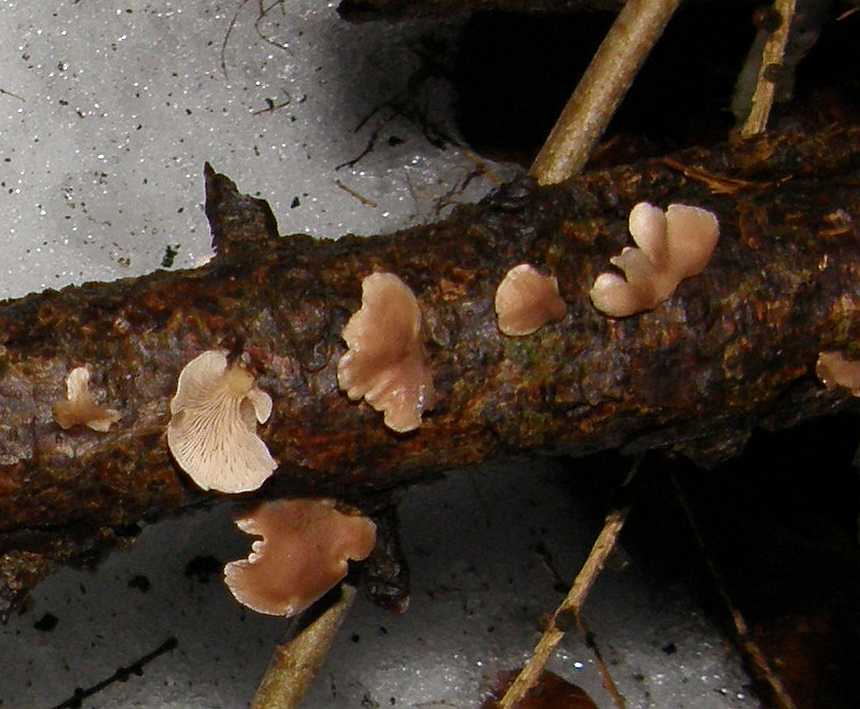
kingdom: Fungi
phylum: Basidiomycota
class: Agaricomycetes
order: Agaricales
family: Mycenaceae
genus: Panellus
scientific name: Panellus mitis
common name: mild epaulethat
